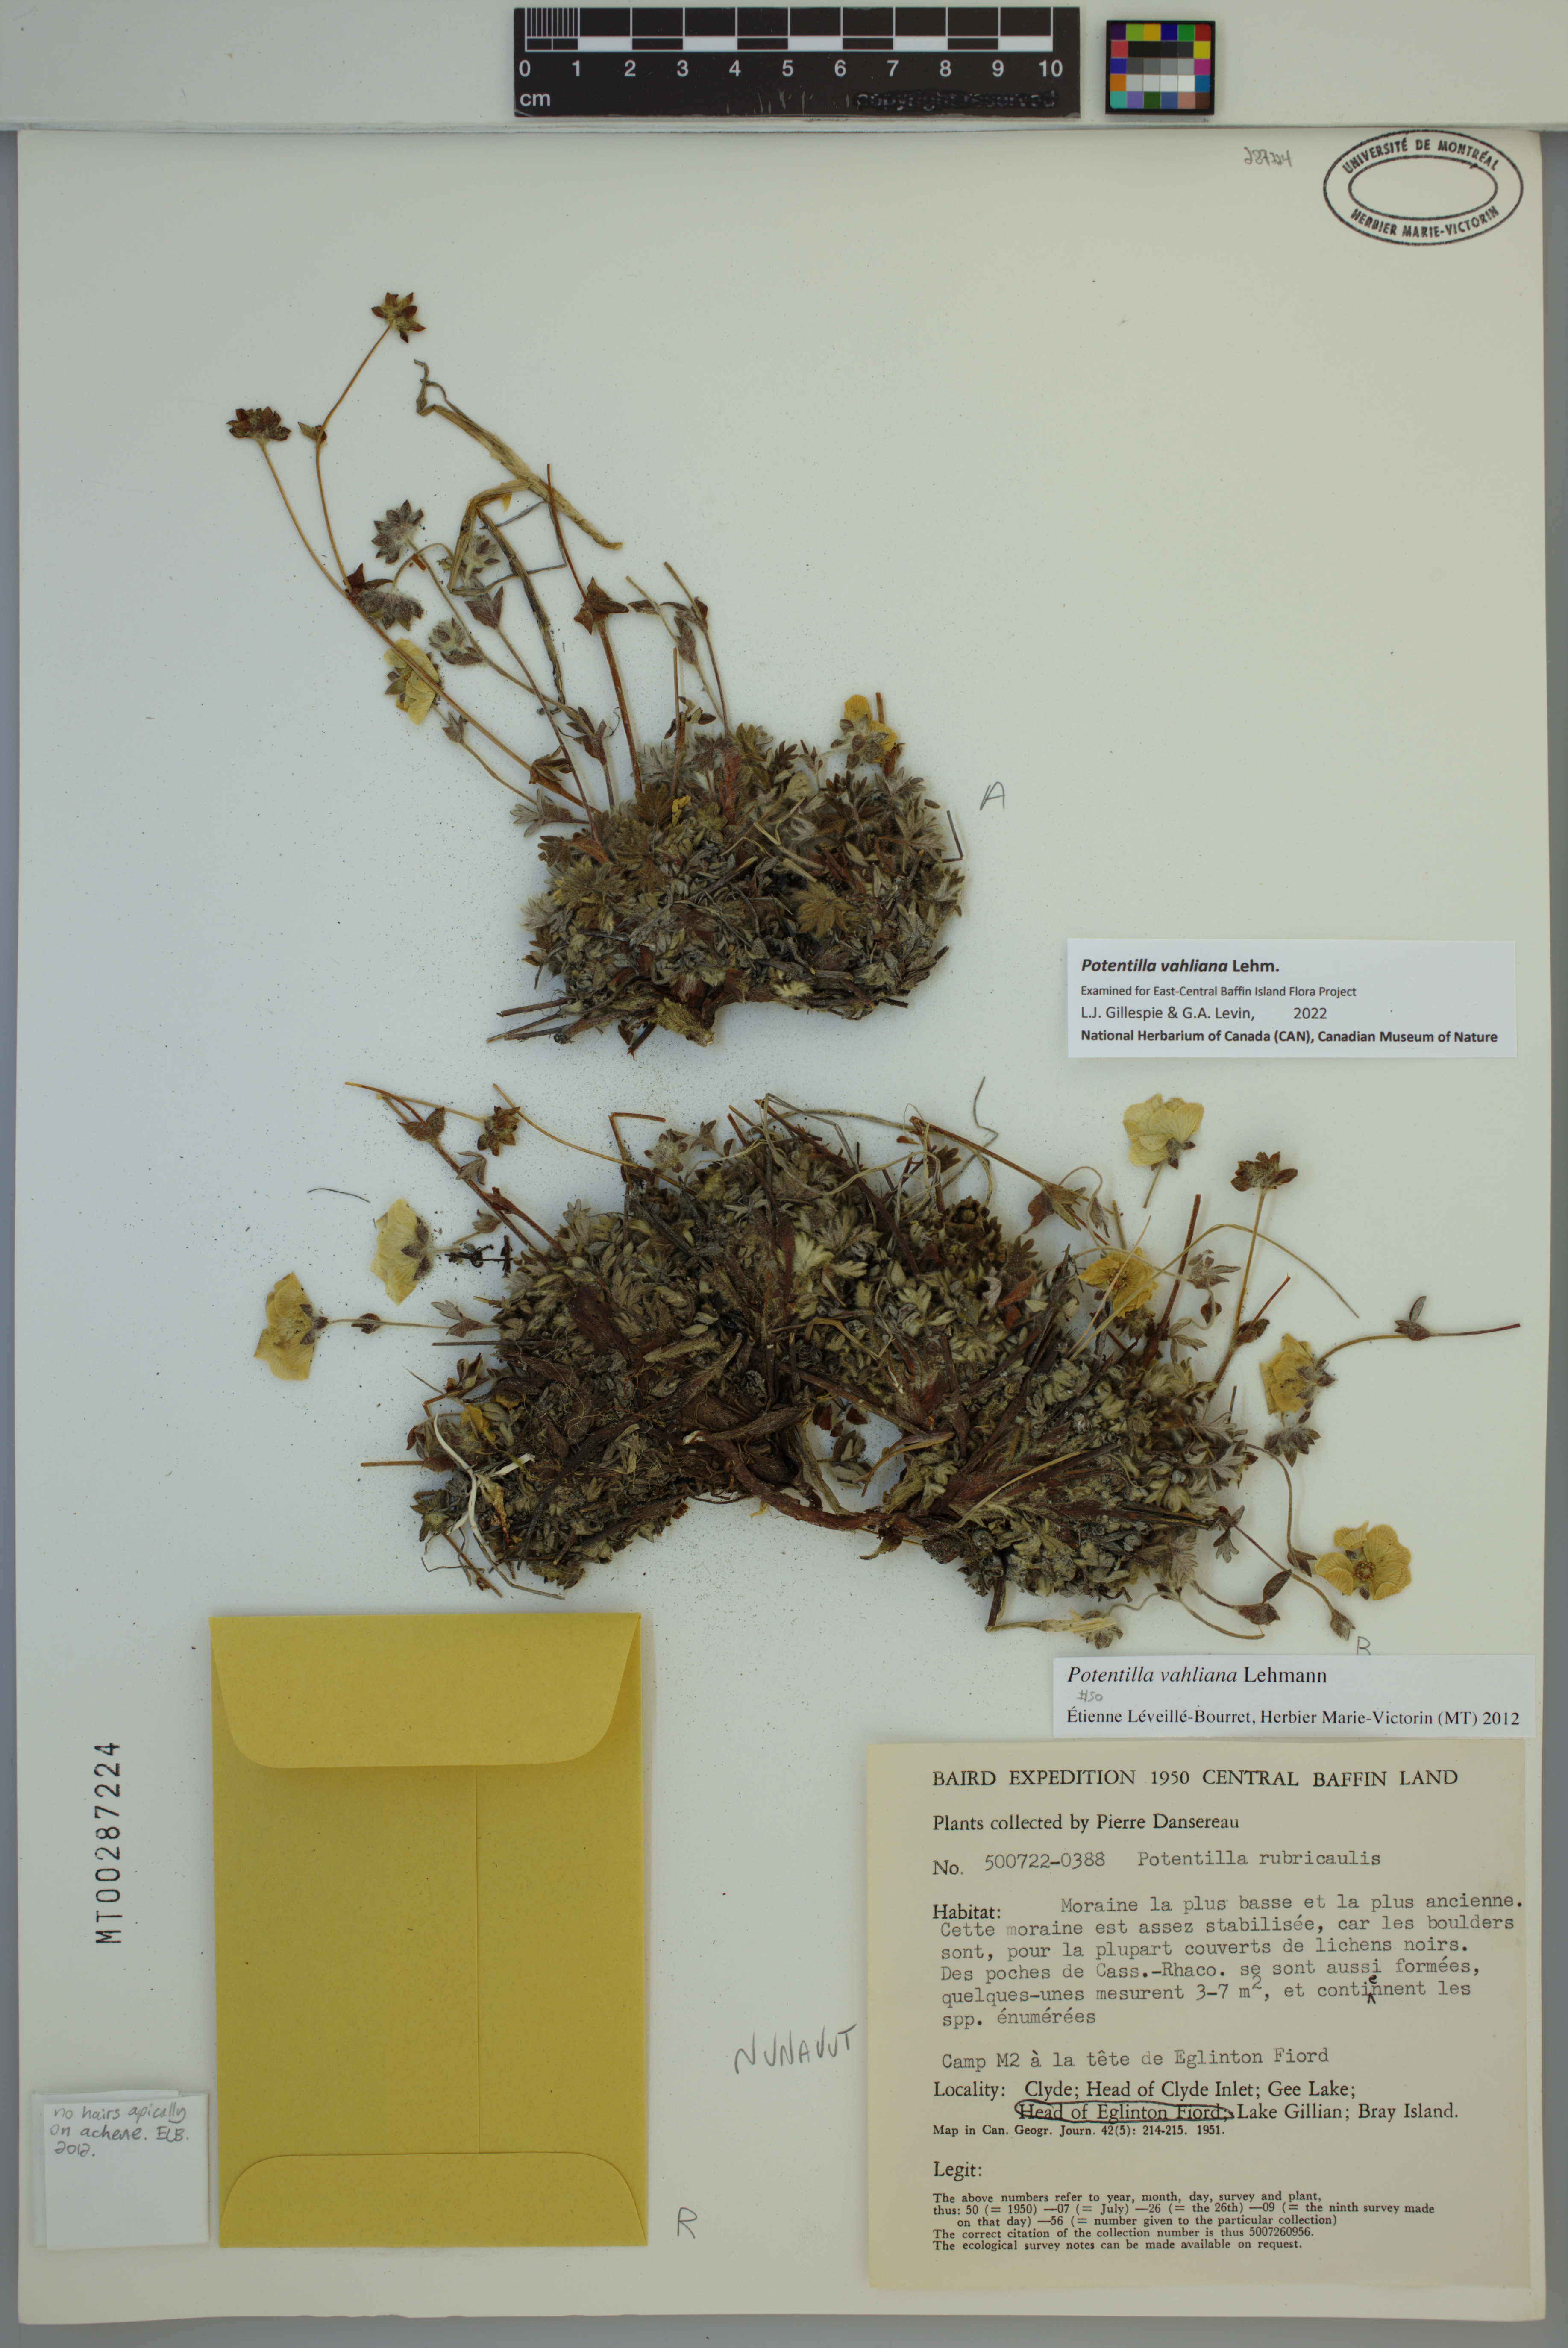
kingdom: Plantae
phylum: Tracheophyta
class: Magnoliopsida
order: Rosales
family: Rosaceae
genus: Potentilla
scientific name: Potentilla vahliana
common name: Vahl's cinquefoil
